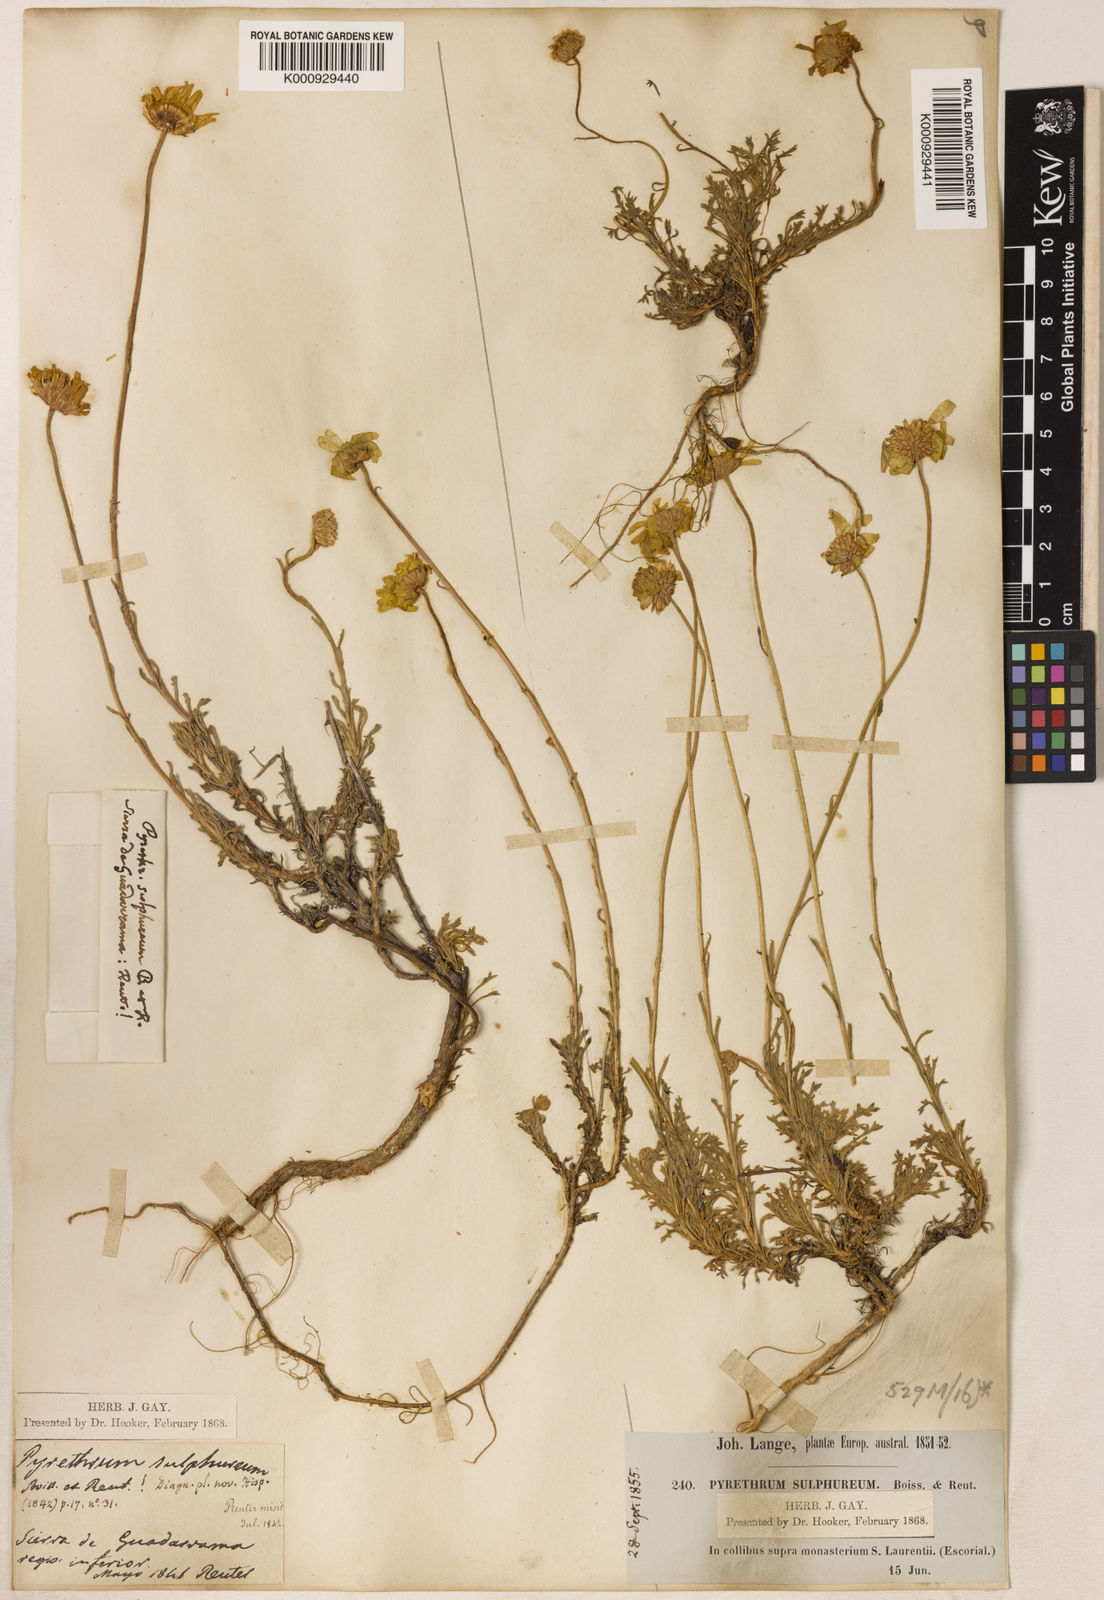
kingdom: Plantae
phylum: Tracheophyta
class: Magnoliopsida
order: Asterales
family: Asteraceae
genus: Leucanthemopsis
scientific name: Leucanthemopsis pulverulenta
